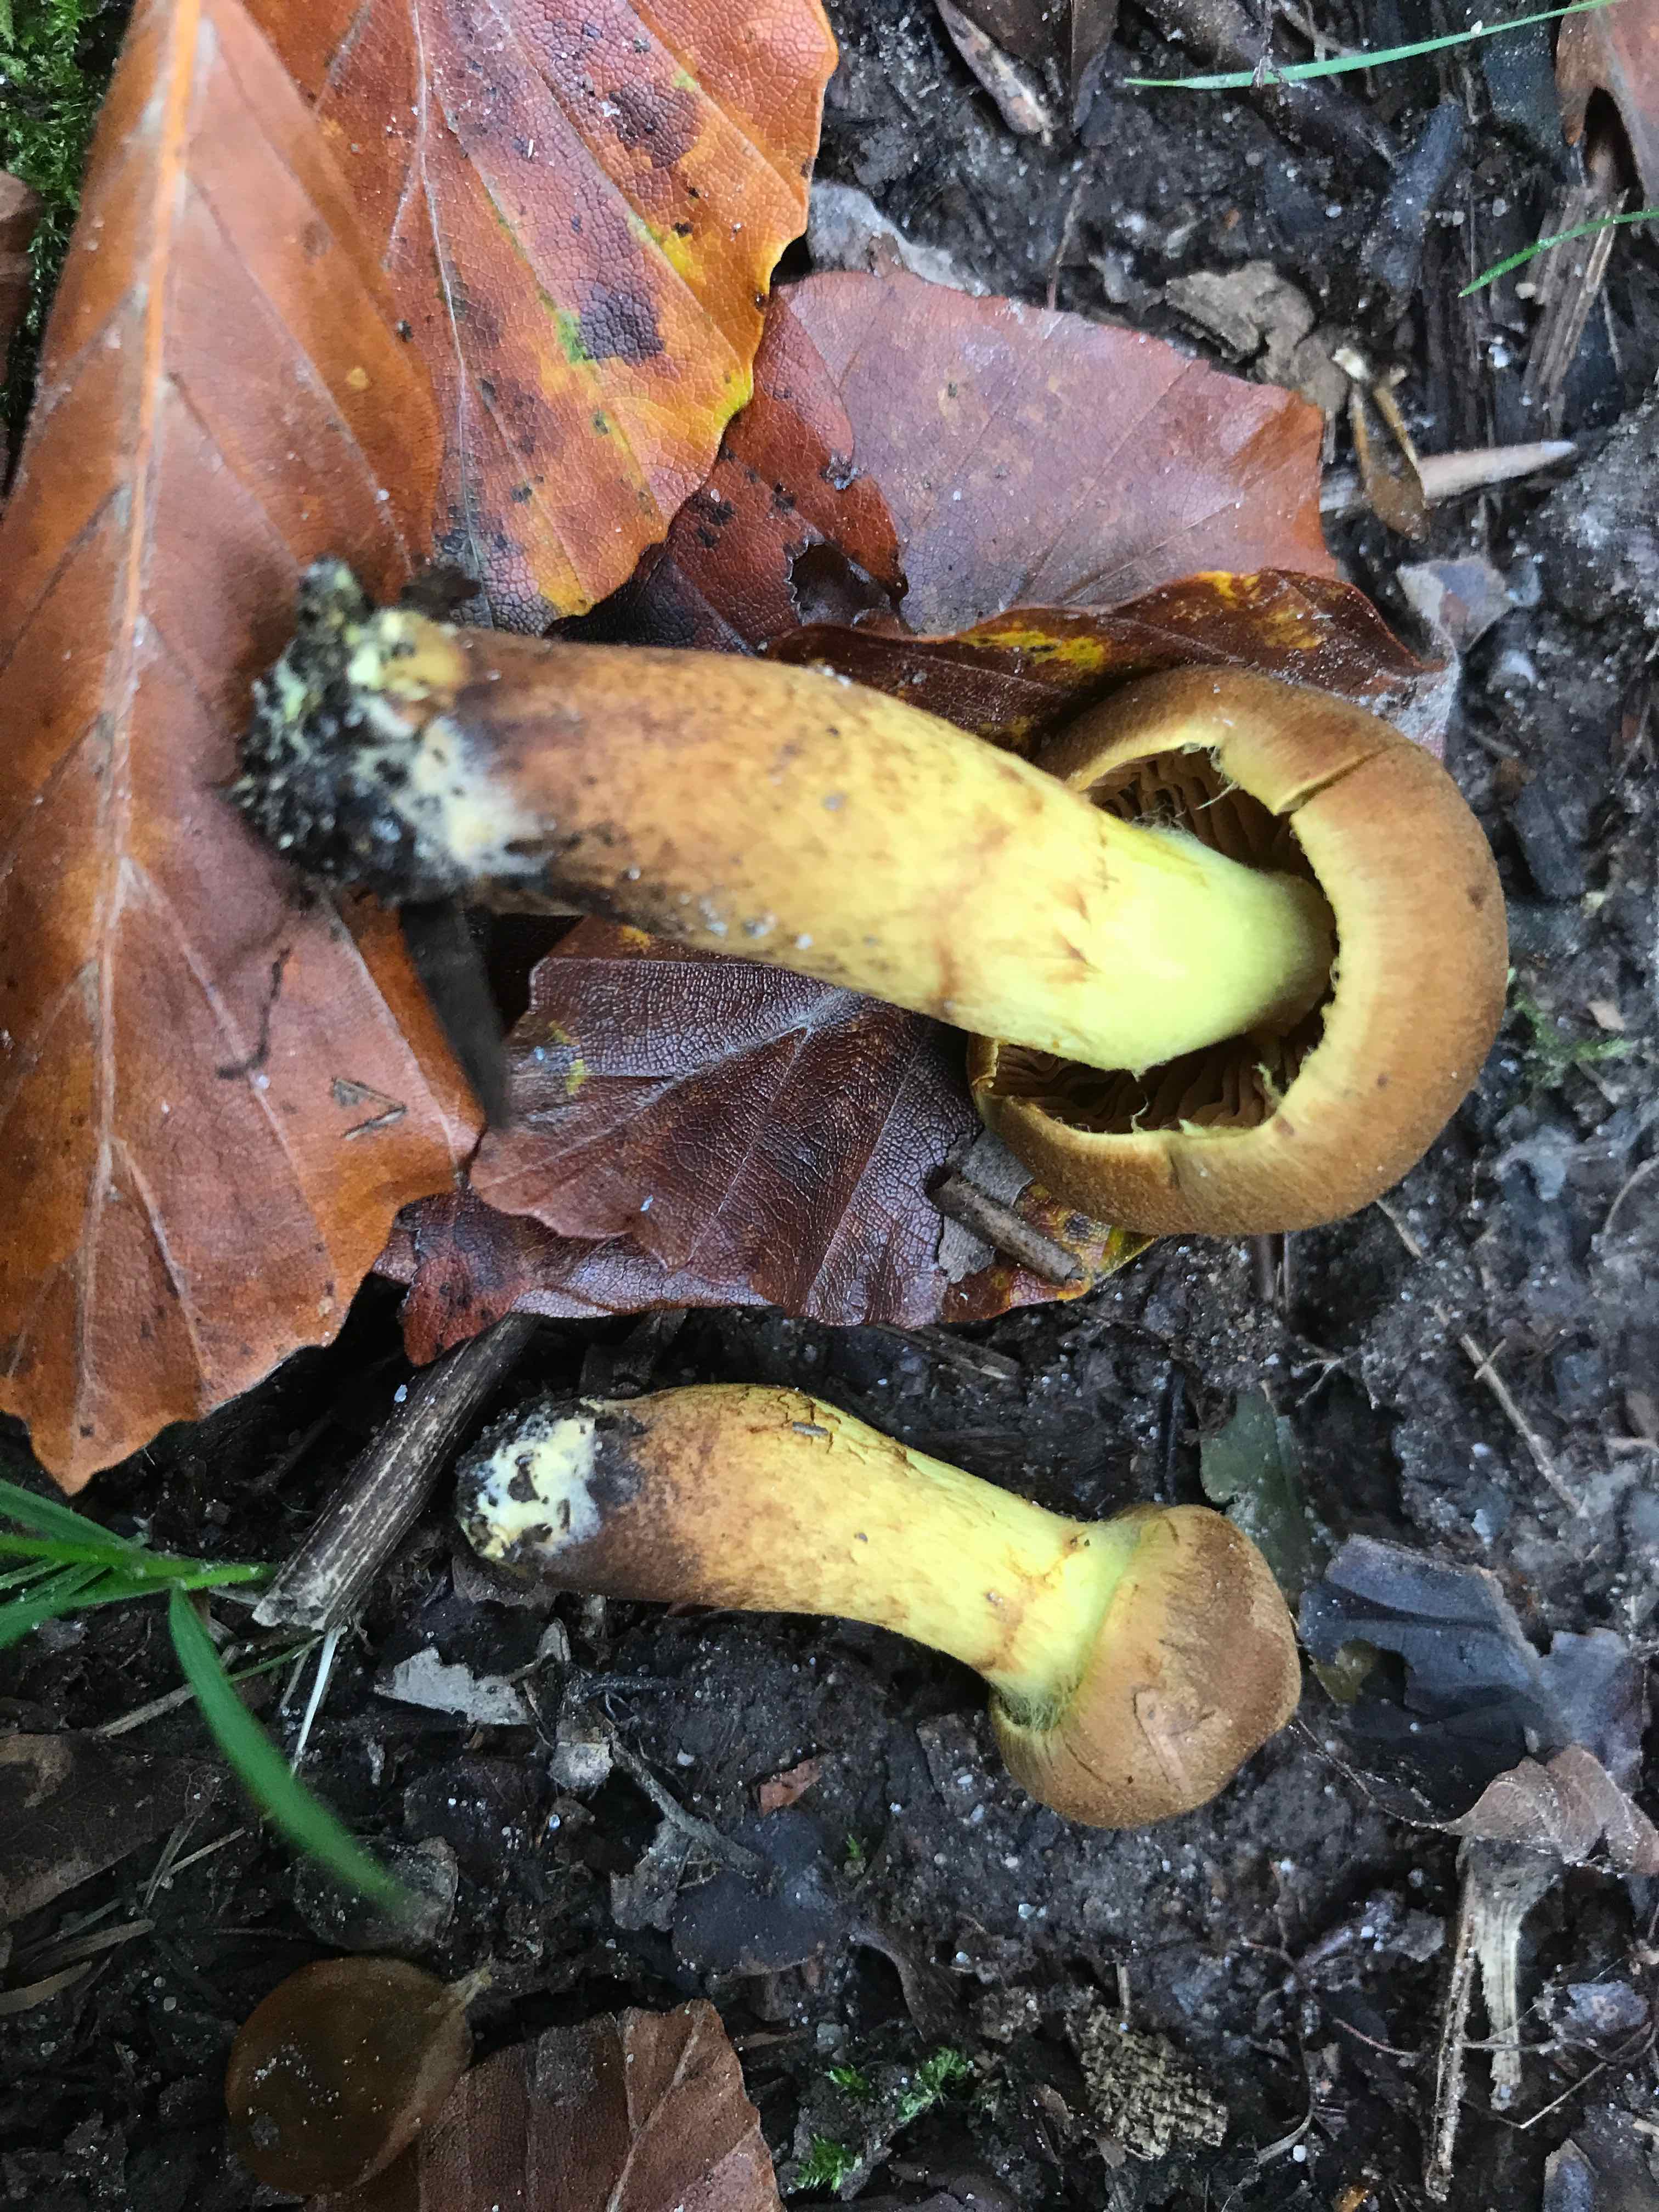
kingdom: Fungi
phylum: Basidiomycota
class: Agaricomycetes
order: Agaricales
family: Cortinariaceae
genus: Cortinarius
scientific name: Cortinarius
